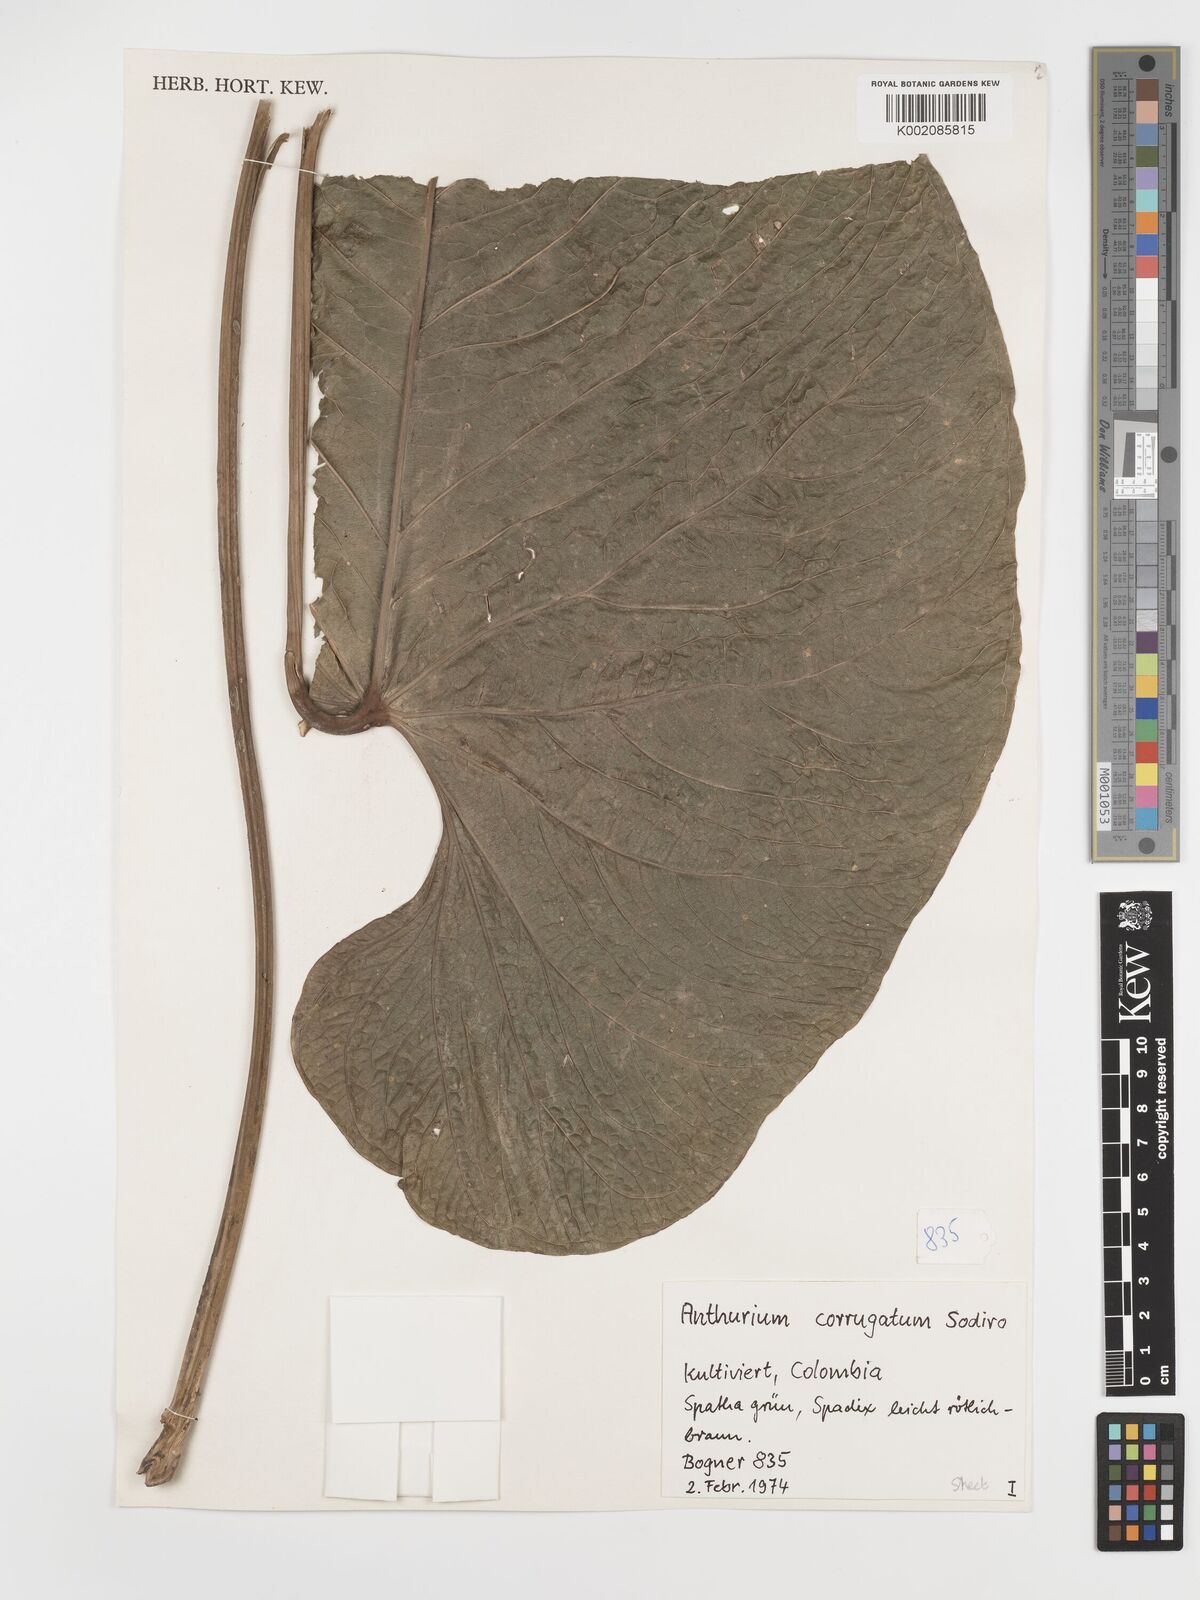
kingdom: Plantae
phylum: Tracheophyta
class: Liliopsida
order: Alismatales
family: Araceae
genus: Anthurium
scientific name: Anthurium corrugatum
